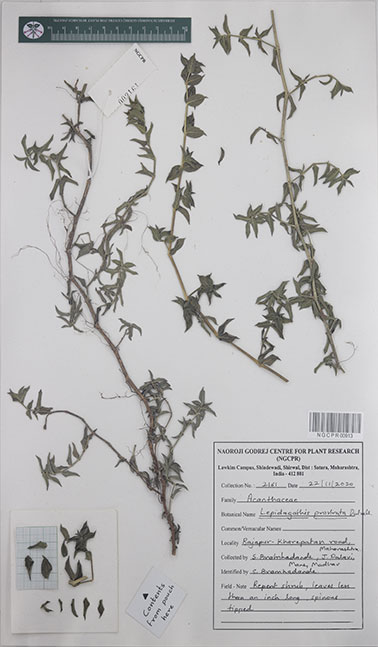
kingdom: Plantae
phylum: Tracheophyta
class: Magnoliopsida
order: Lamiales
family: Acanthaceae
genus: Lepidagathis
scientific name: Lepidagathis prostrata
